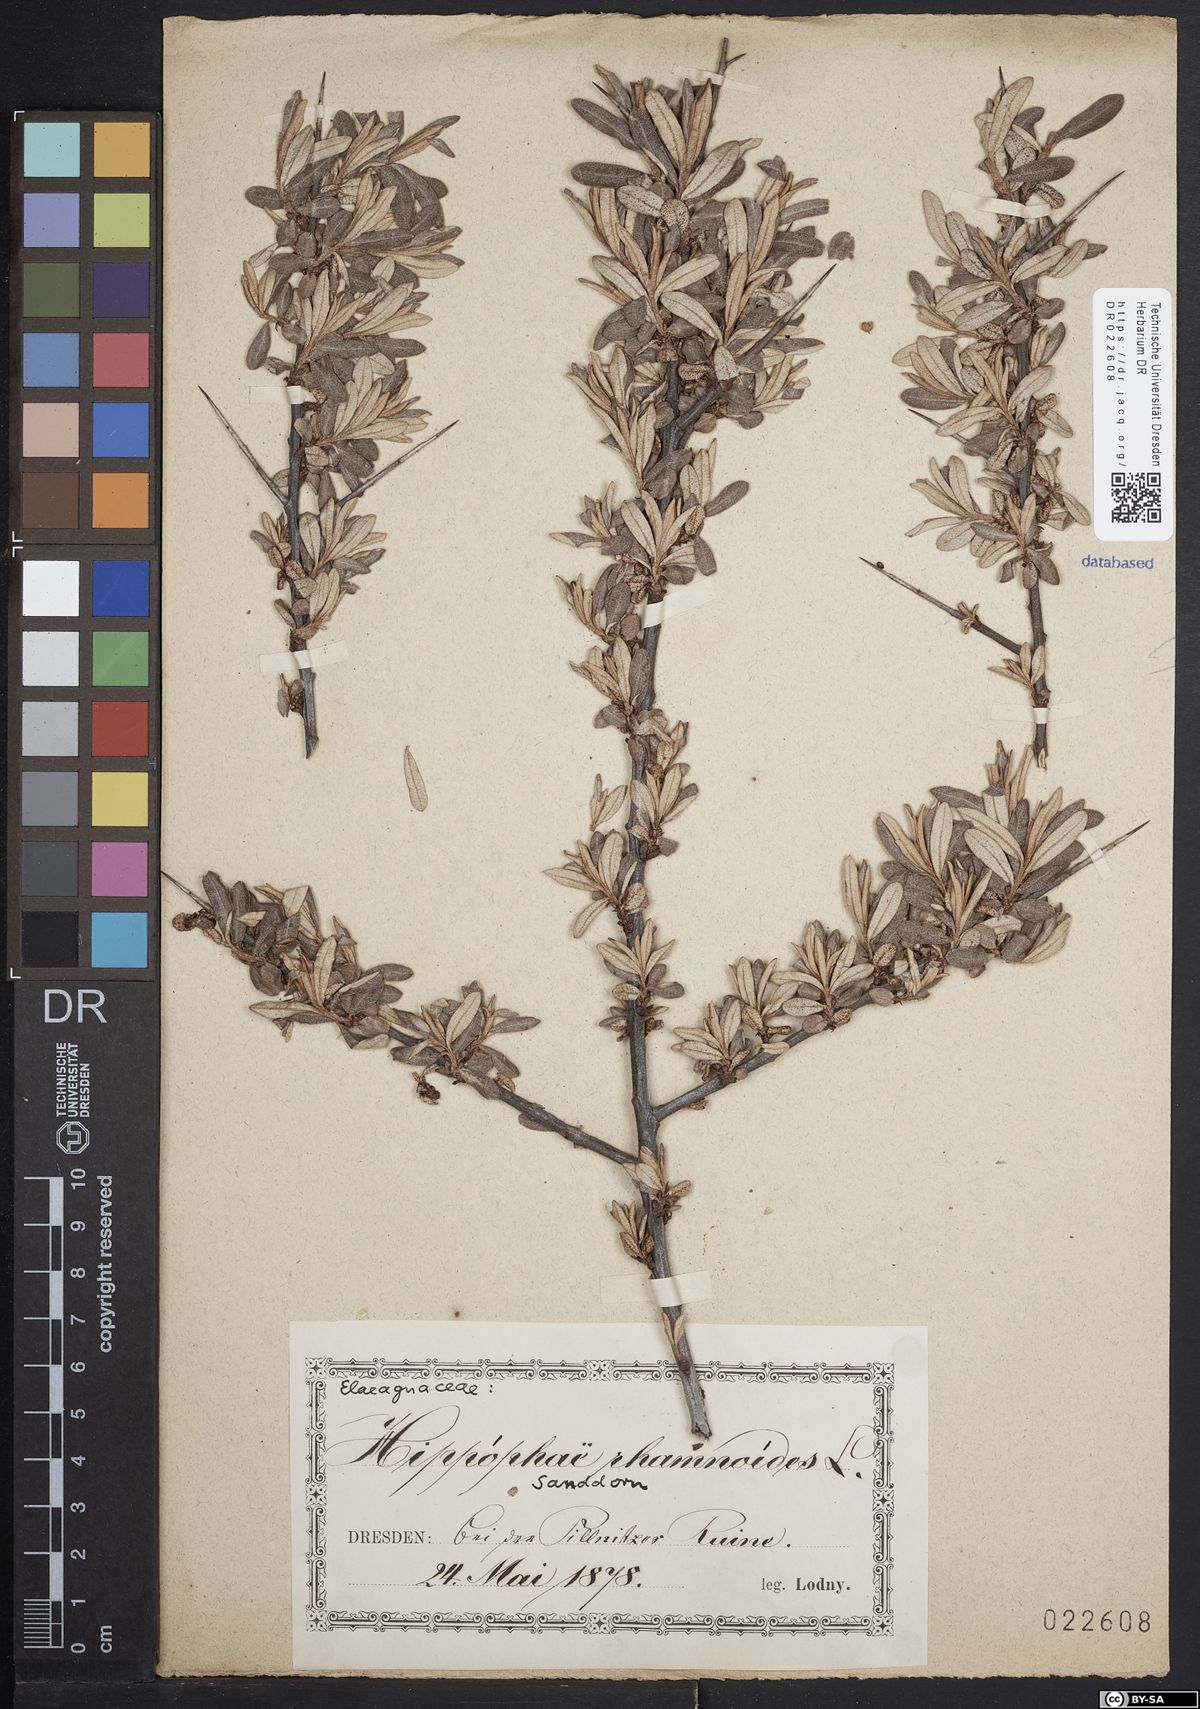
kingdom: Plantae
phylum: Tracheophyta
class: Magnoliopsida
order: Rosales
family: Elaeagnaceae
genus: Hippophae
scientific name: Hippophae rhamnoides
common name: Sea-buckthorn
